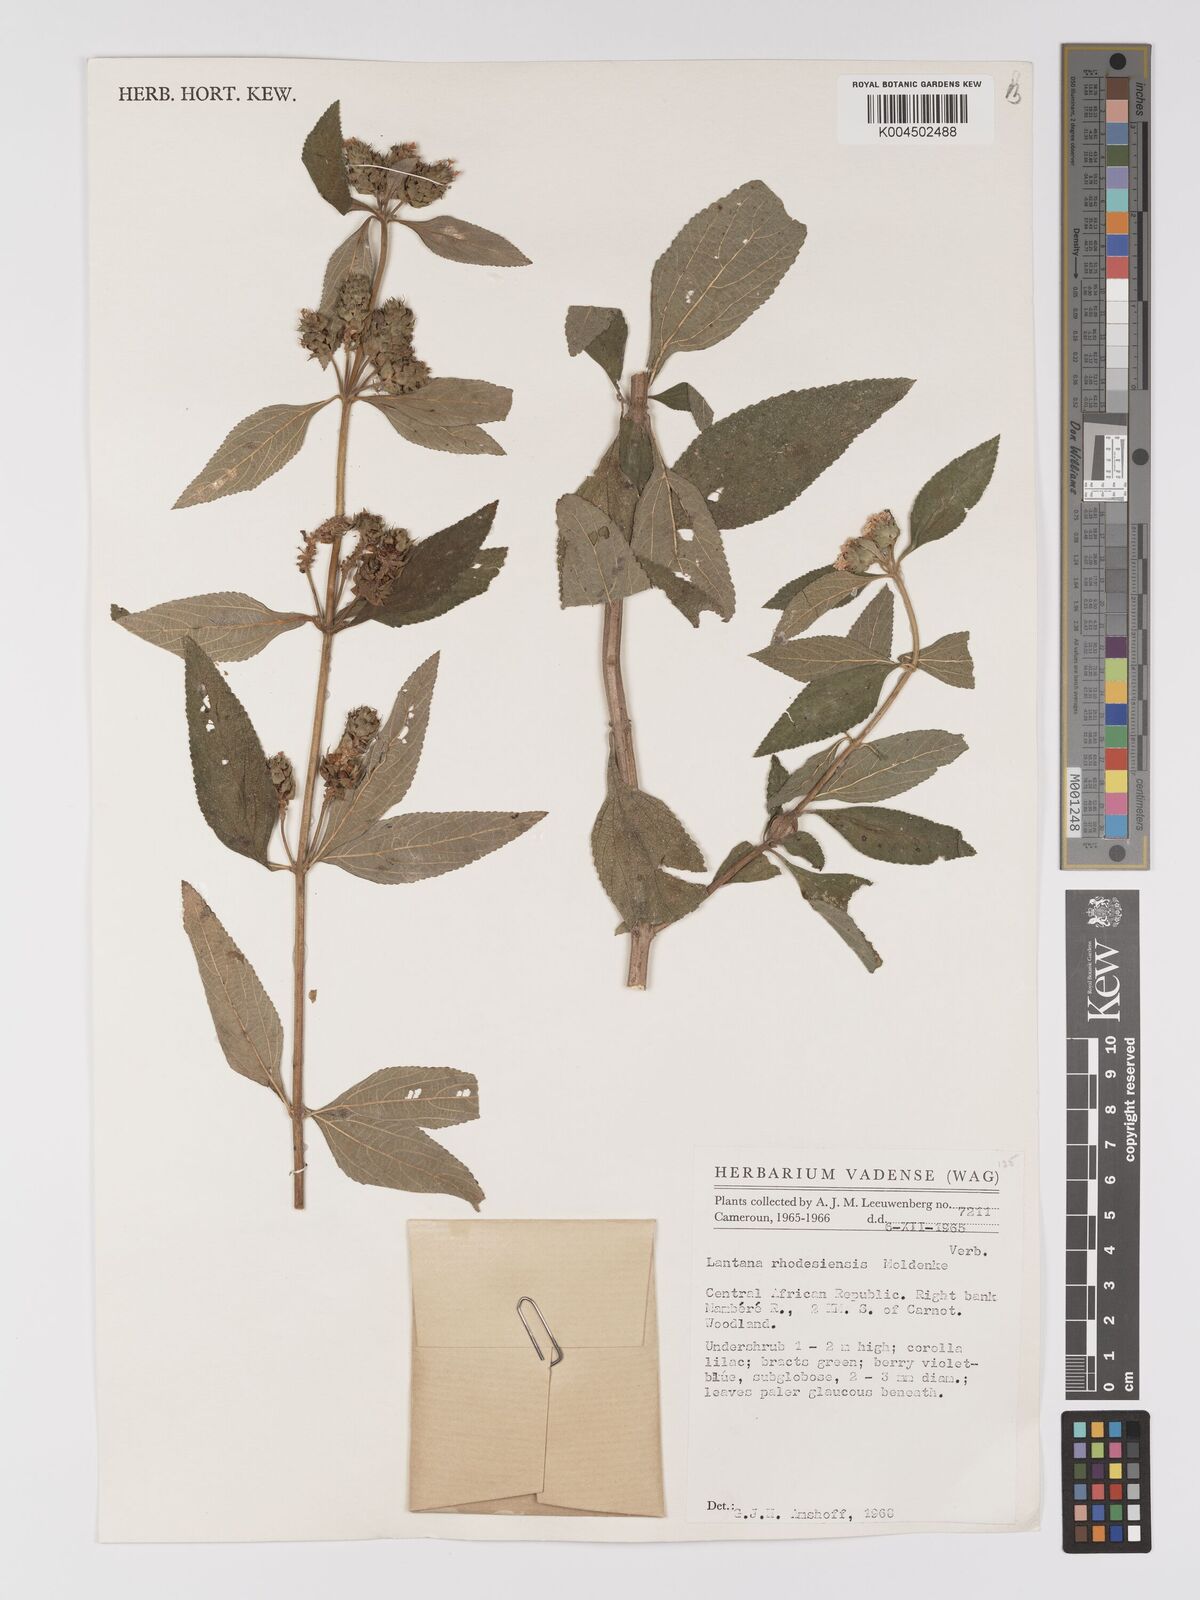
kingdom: Plantae
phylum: Tracheophyta
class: Magnoliopsida
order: Lamiales
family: Verbenaceae
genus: Lantana
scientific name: Lantana ukambensis
